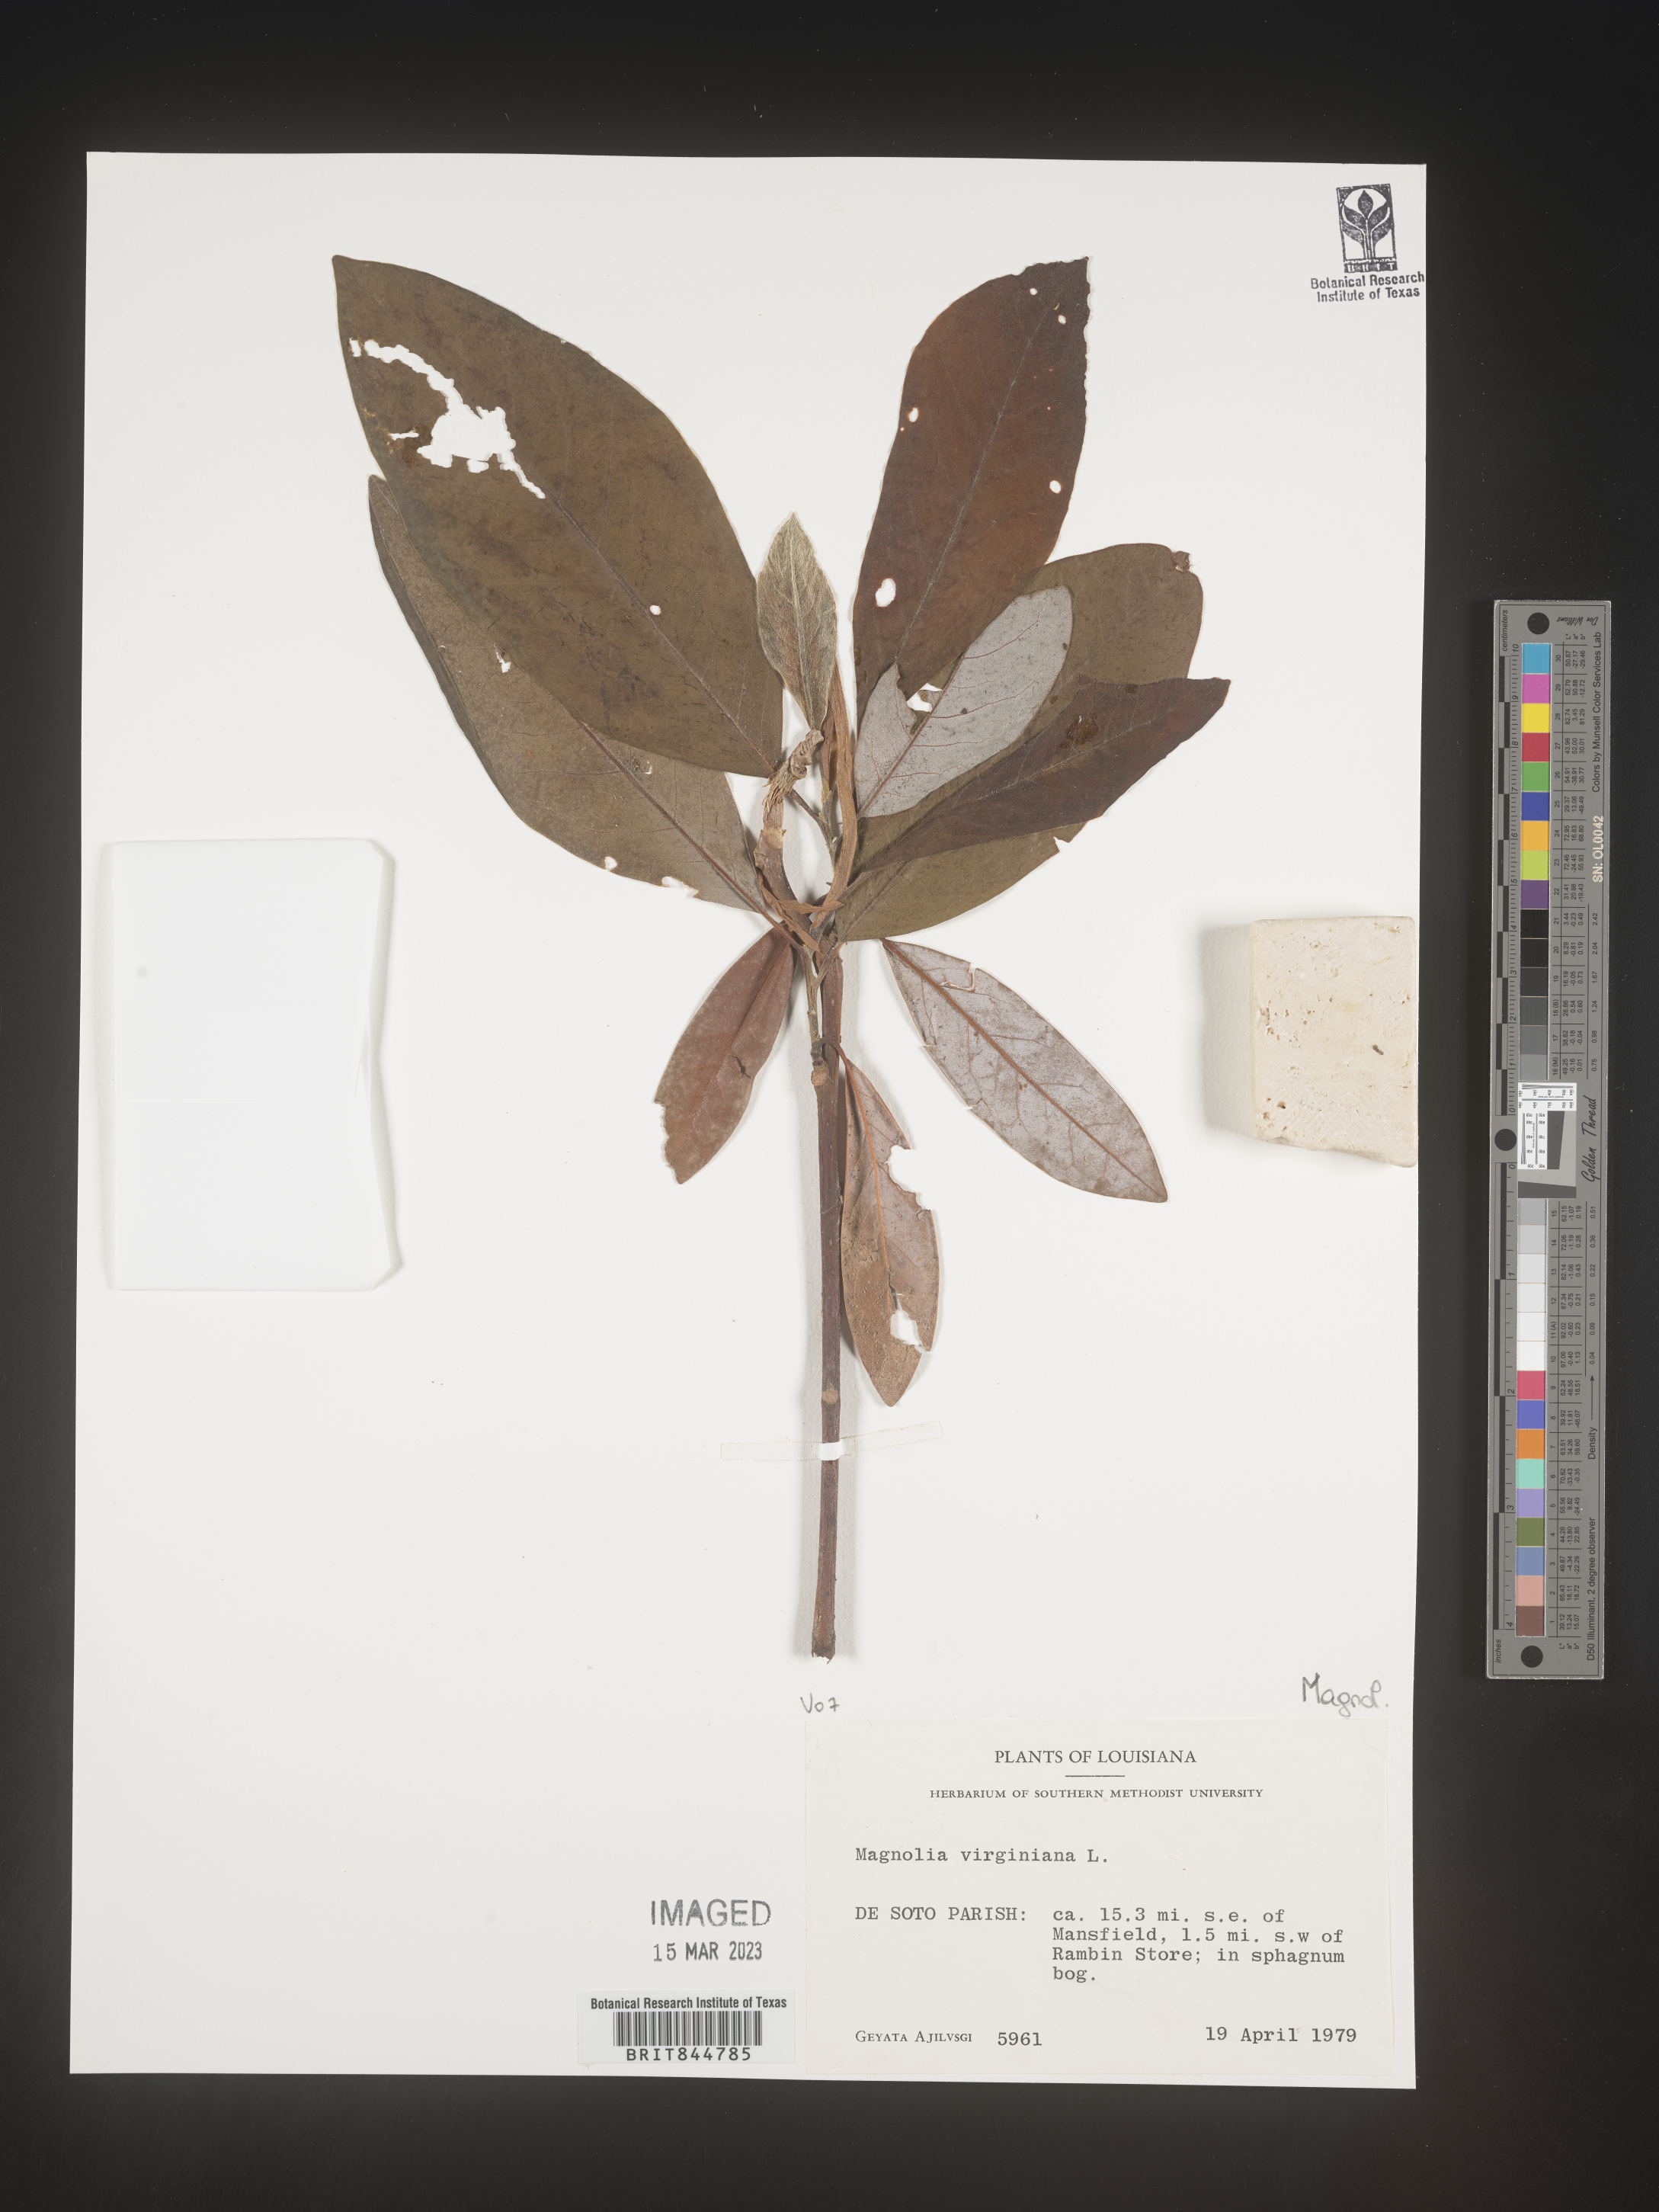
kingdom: Plantae
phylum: Tracheophyta
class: Magnoliopsida
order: Magnoliales
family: Magnoliaceae
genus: Magnolia
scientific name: Magnolia virginiana
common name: Swamp bay
